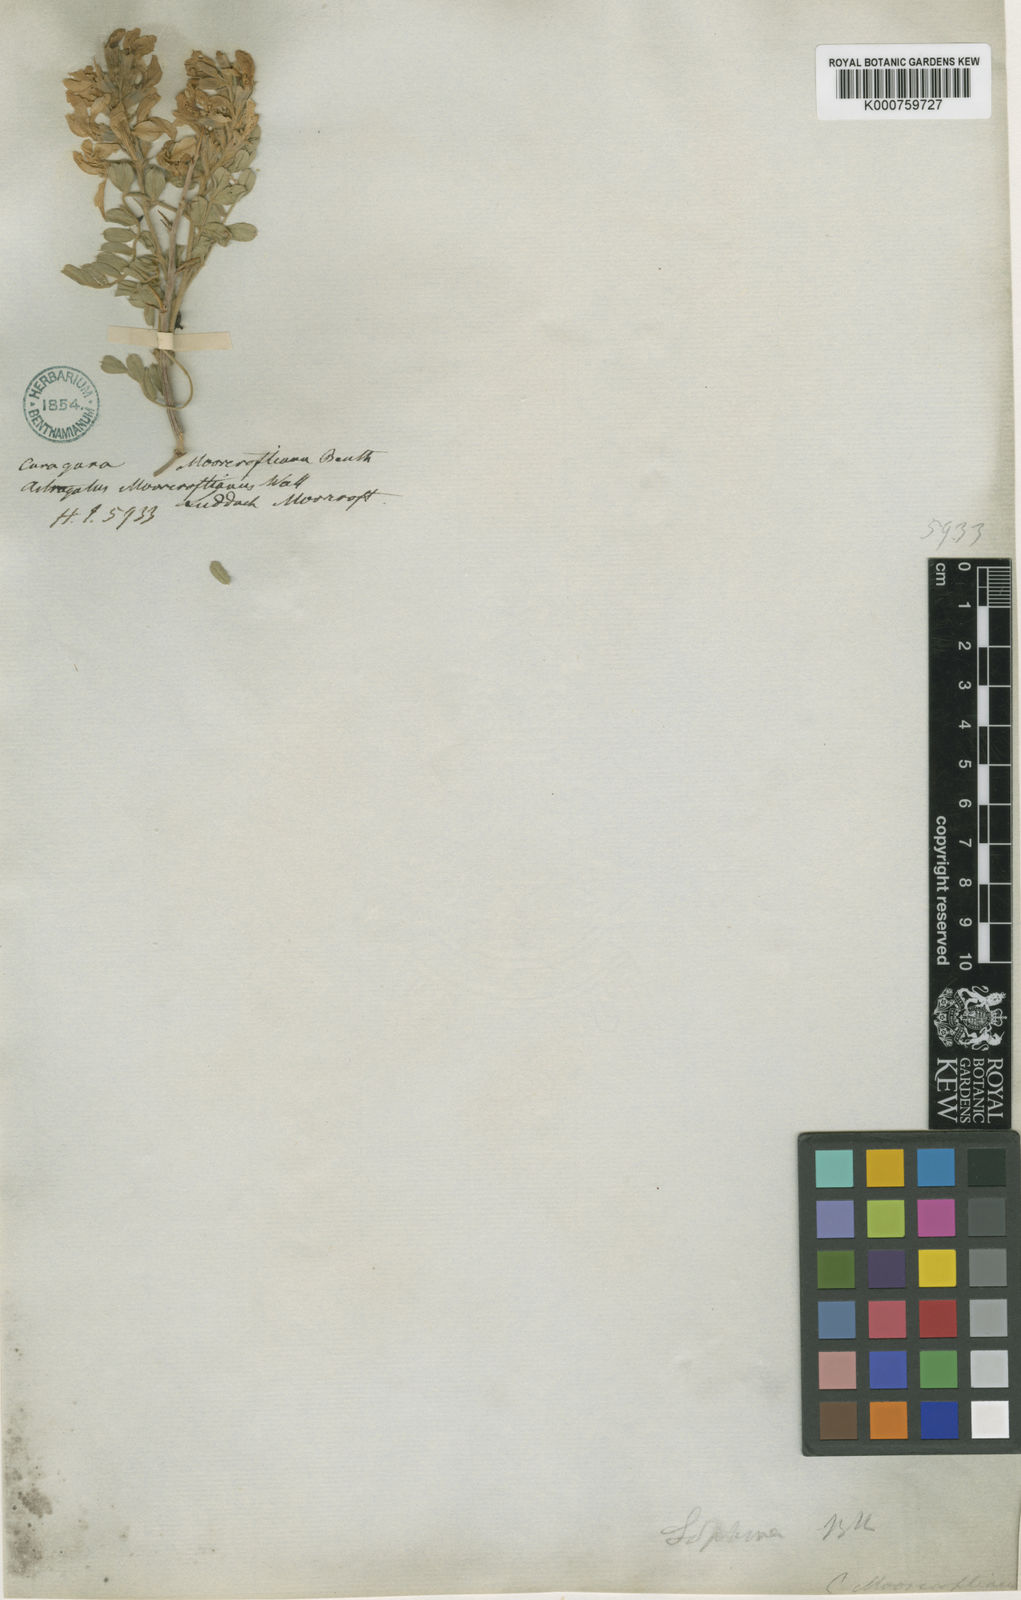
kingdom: Plantae
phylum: Tracheophyta
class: Magnoliopsida
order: Fabales
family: Fabaceae
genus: Sophora
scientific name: Sophora
